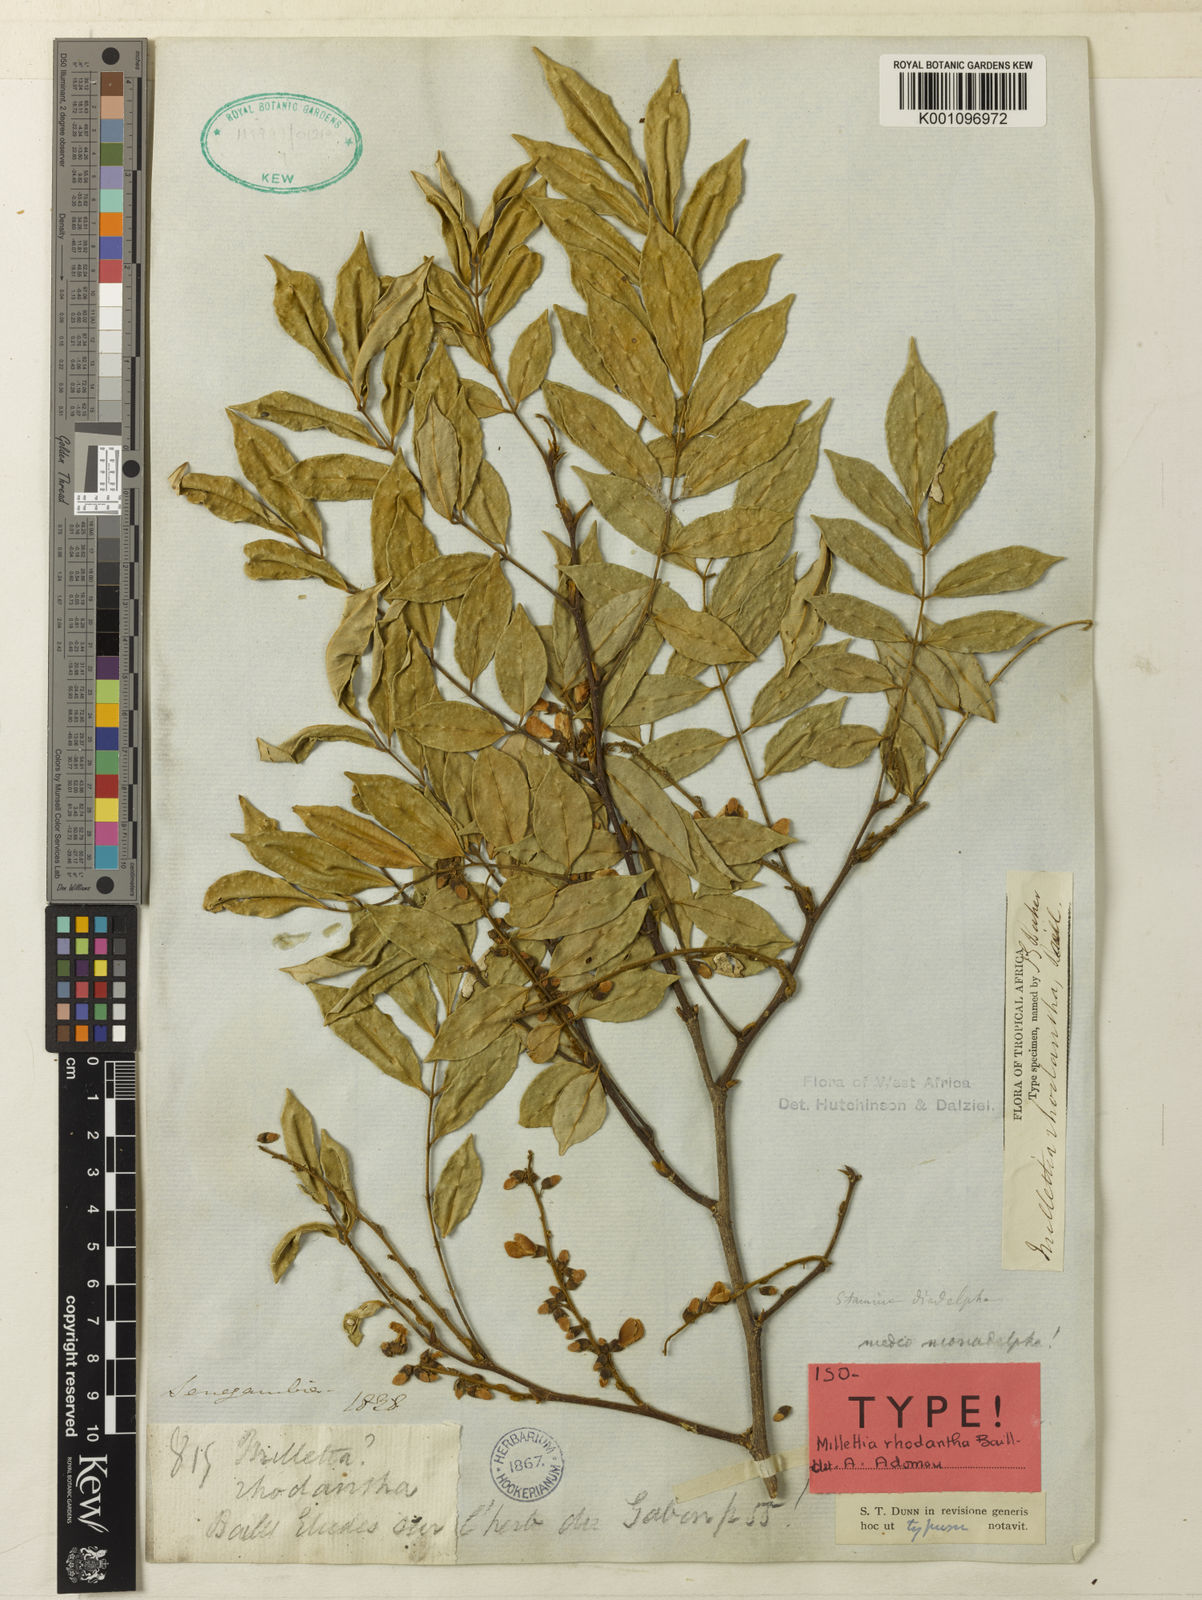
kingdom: Plantae
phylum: Tracheophyta
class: Magnoliopsida
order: Fabales
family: Fabaceae
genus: Millettia
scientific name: Millettia rhodantha
